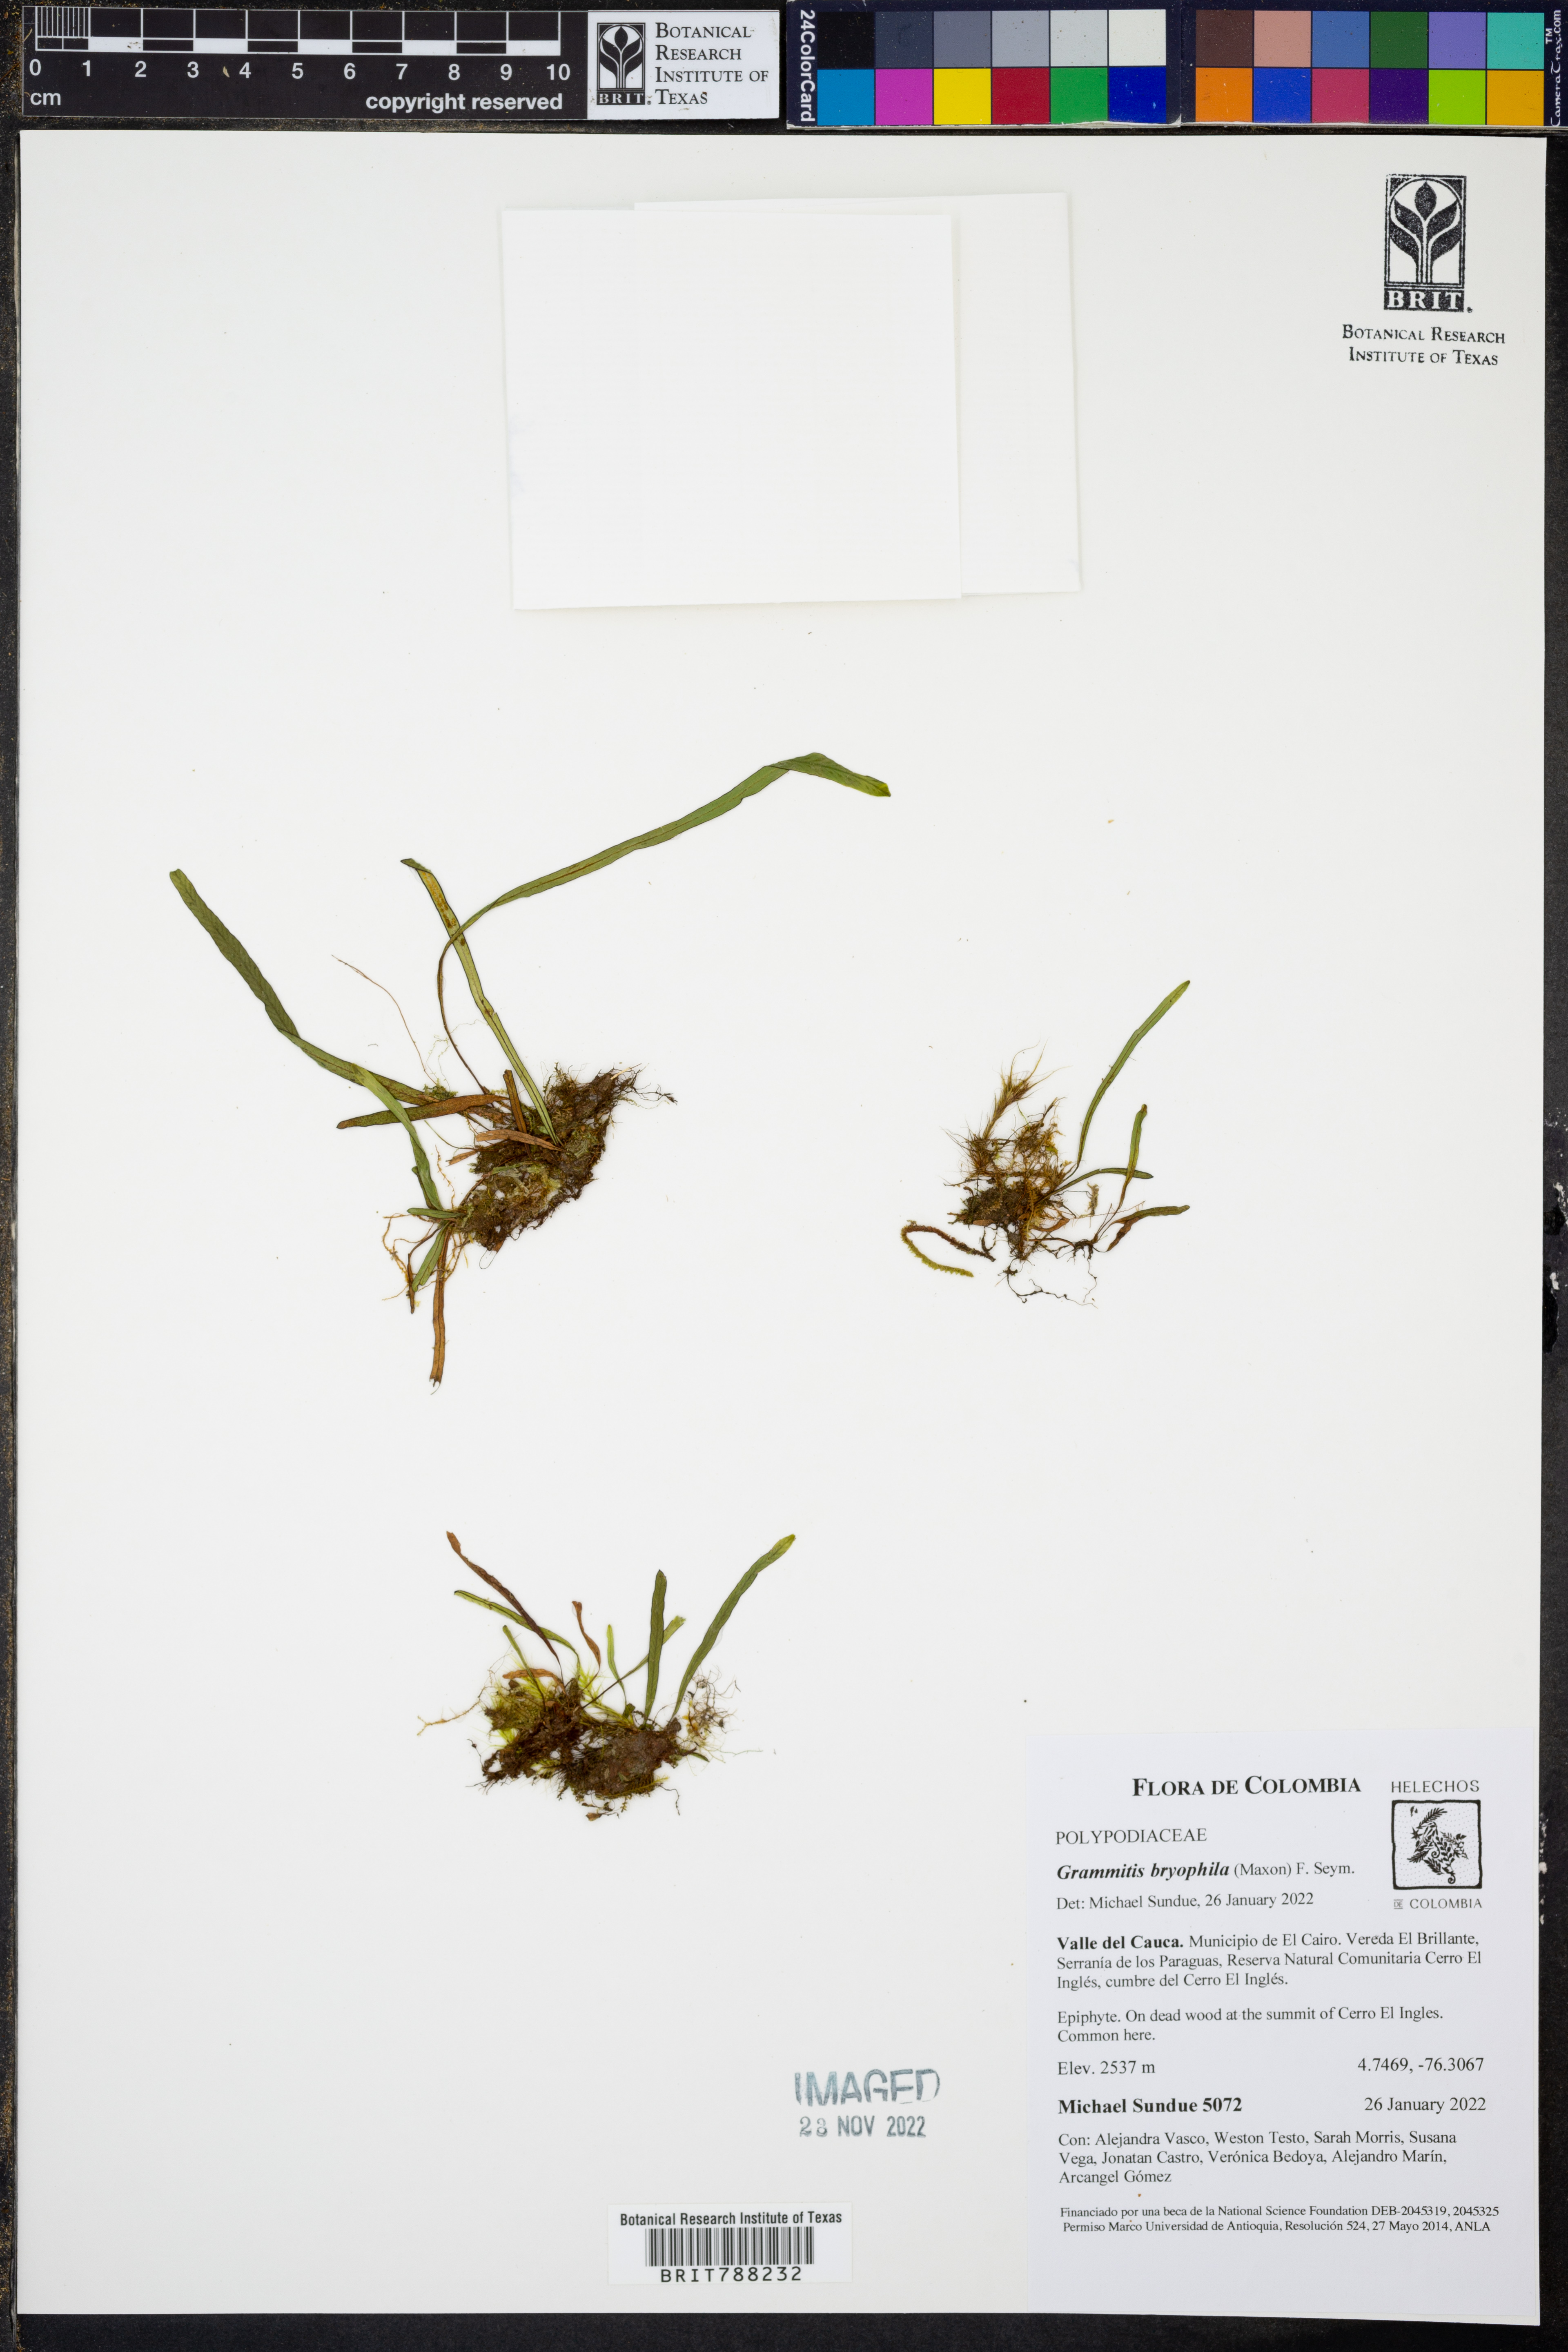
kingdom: Plantae
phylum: Tracheophyta
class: Polypodiopsida
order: Polypodiales
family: Polypodiaceae
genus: Grammitis
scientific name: Grammitis bryophila
